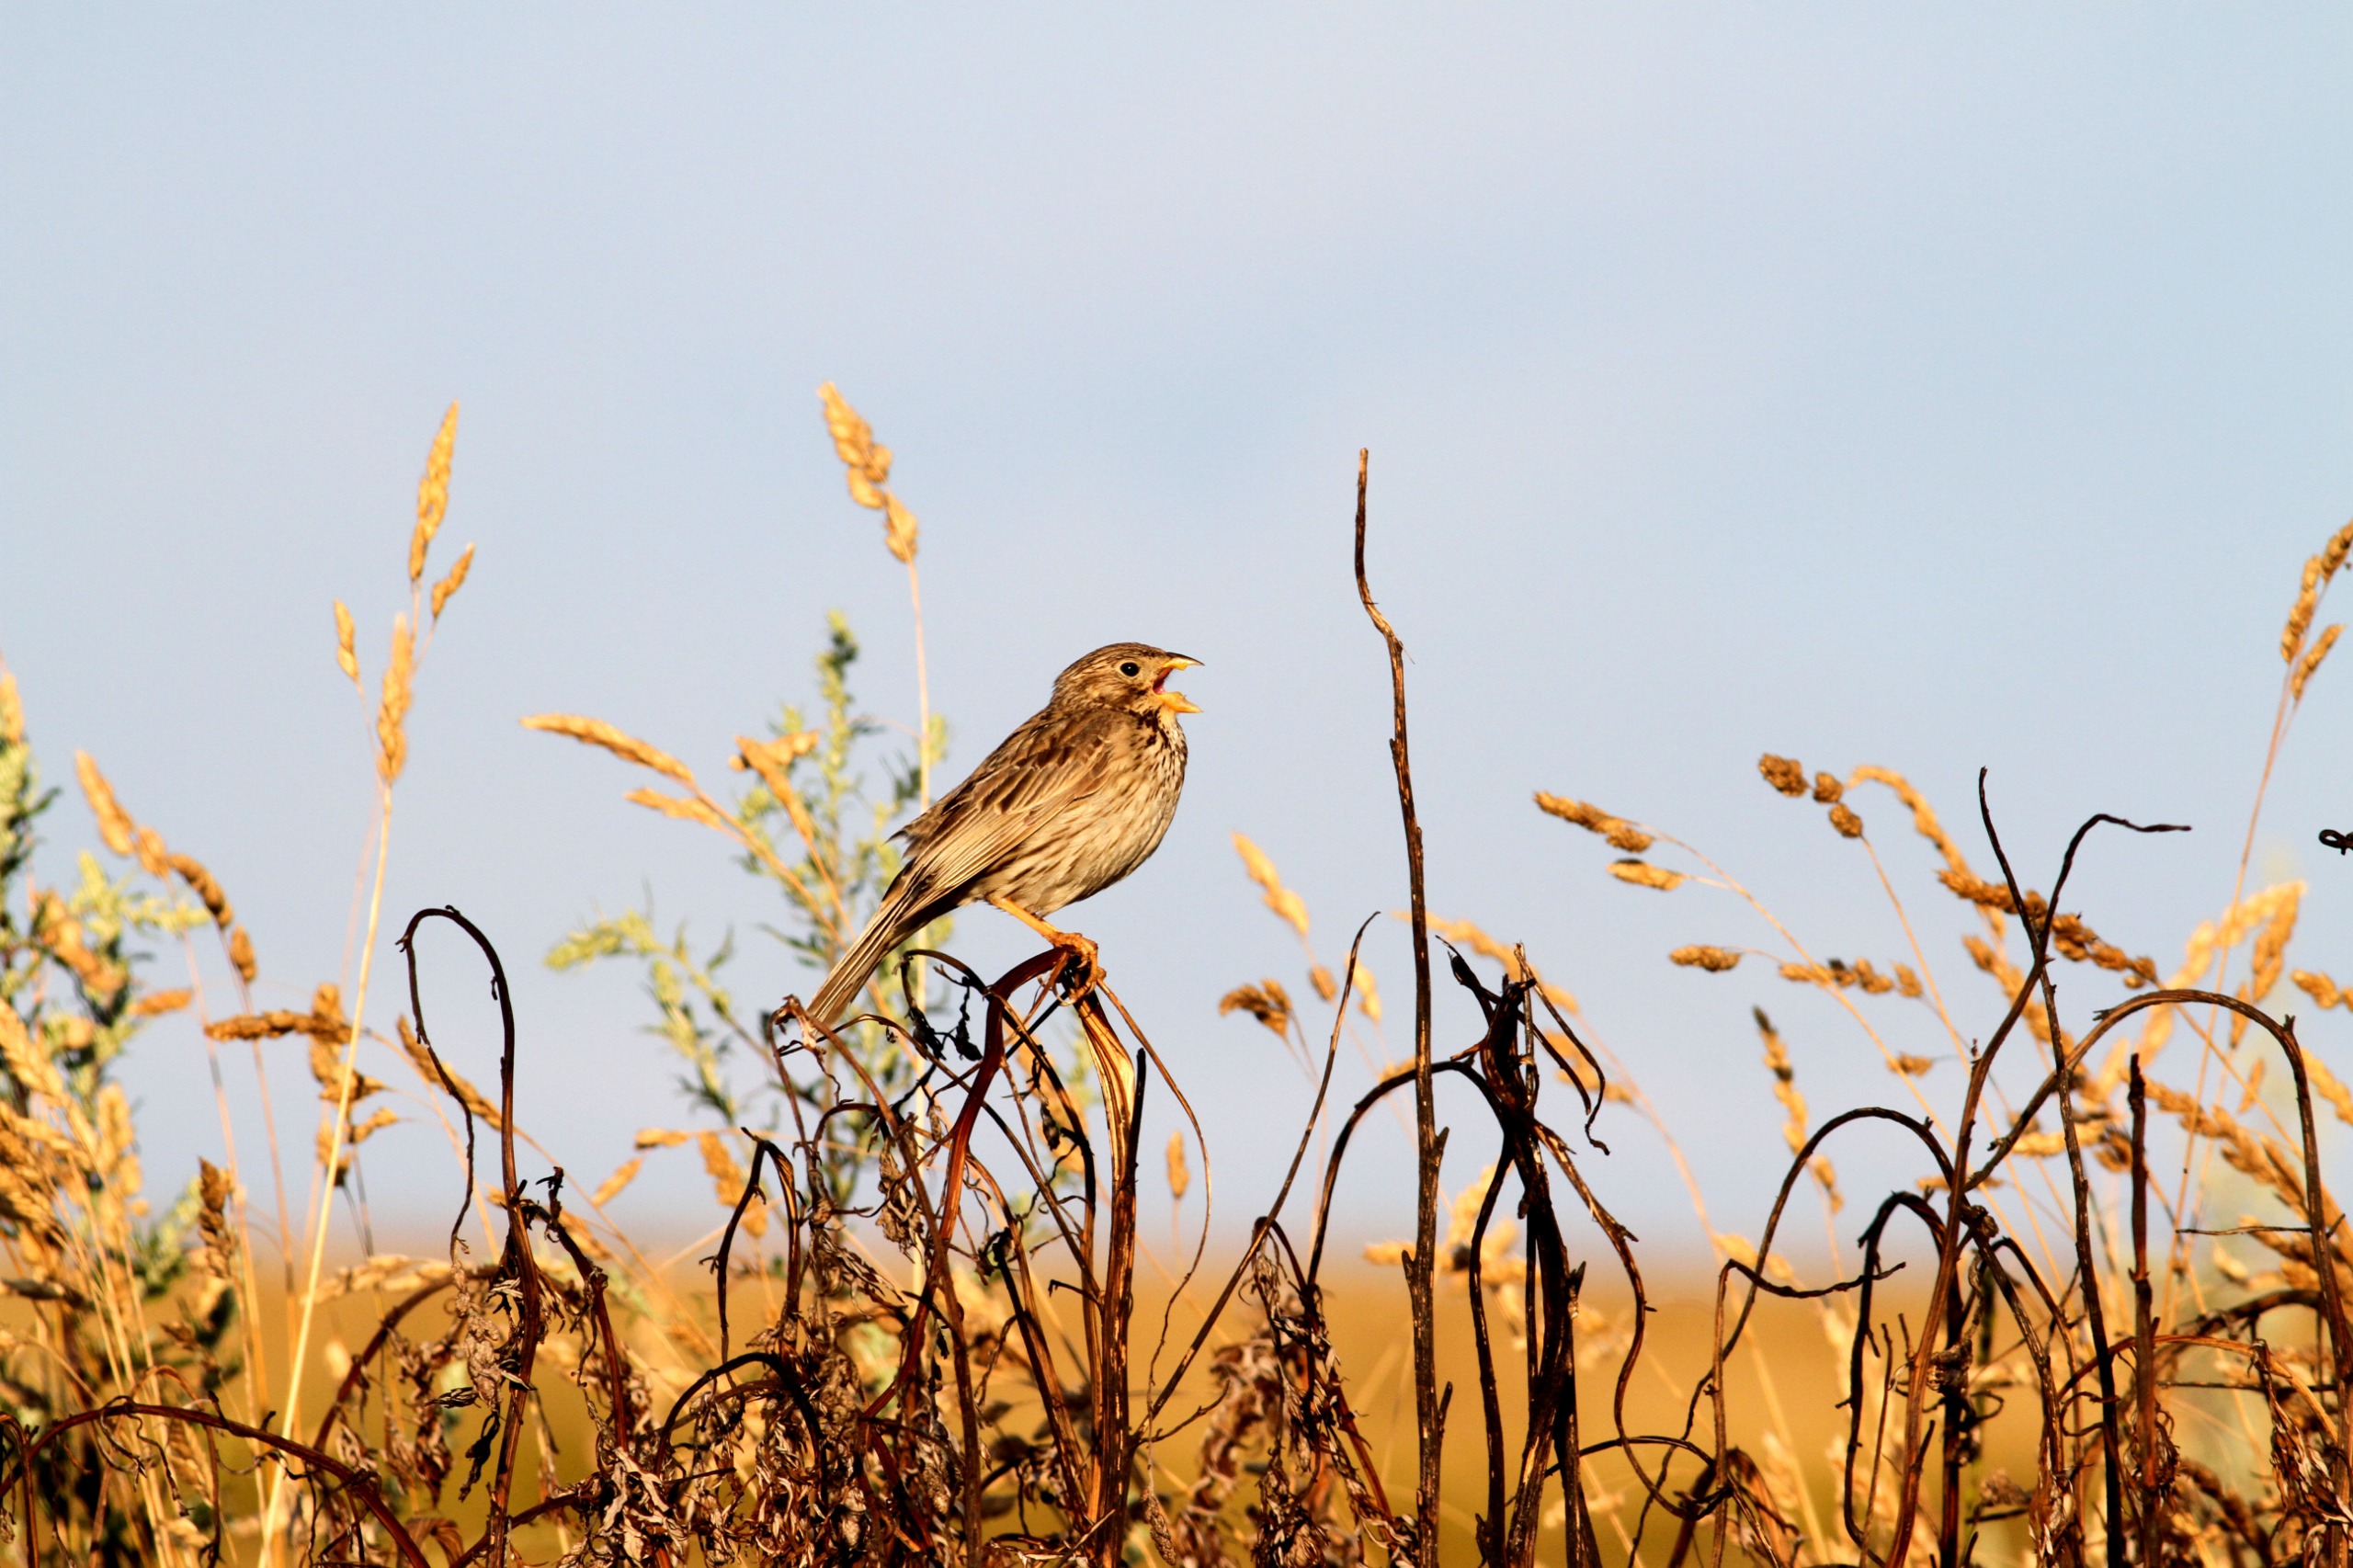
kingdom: Animalia
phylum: Chordata
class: Aves
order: Passeriformes
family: Emberizidae
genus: Emberiza
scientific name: Emberiza calandra
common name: Bomlærke
